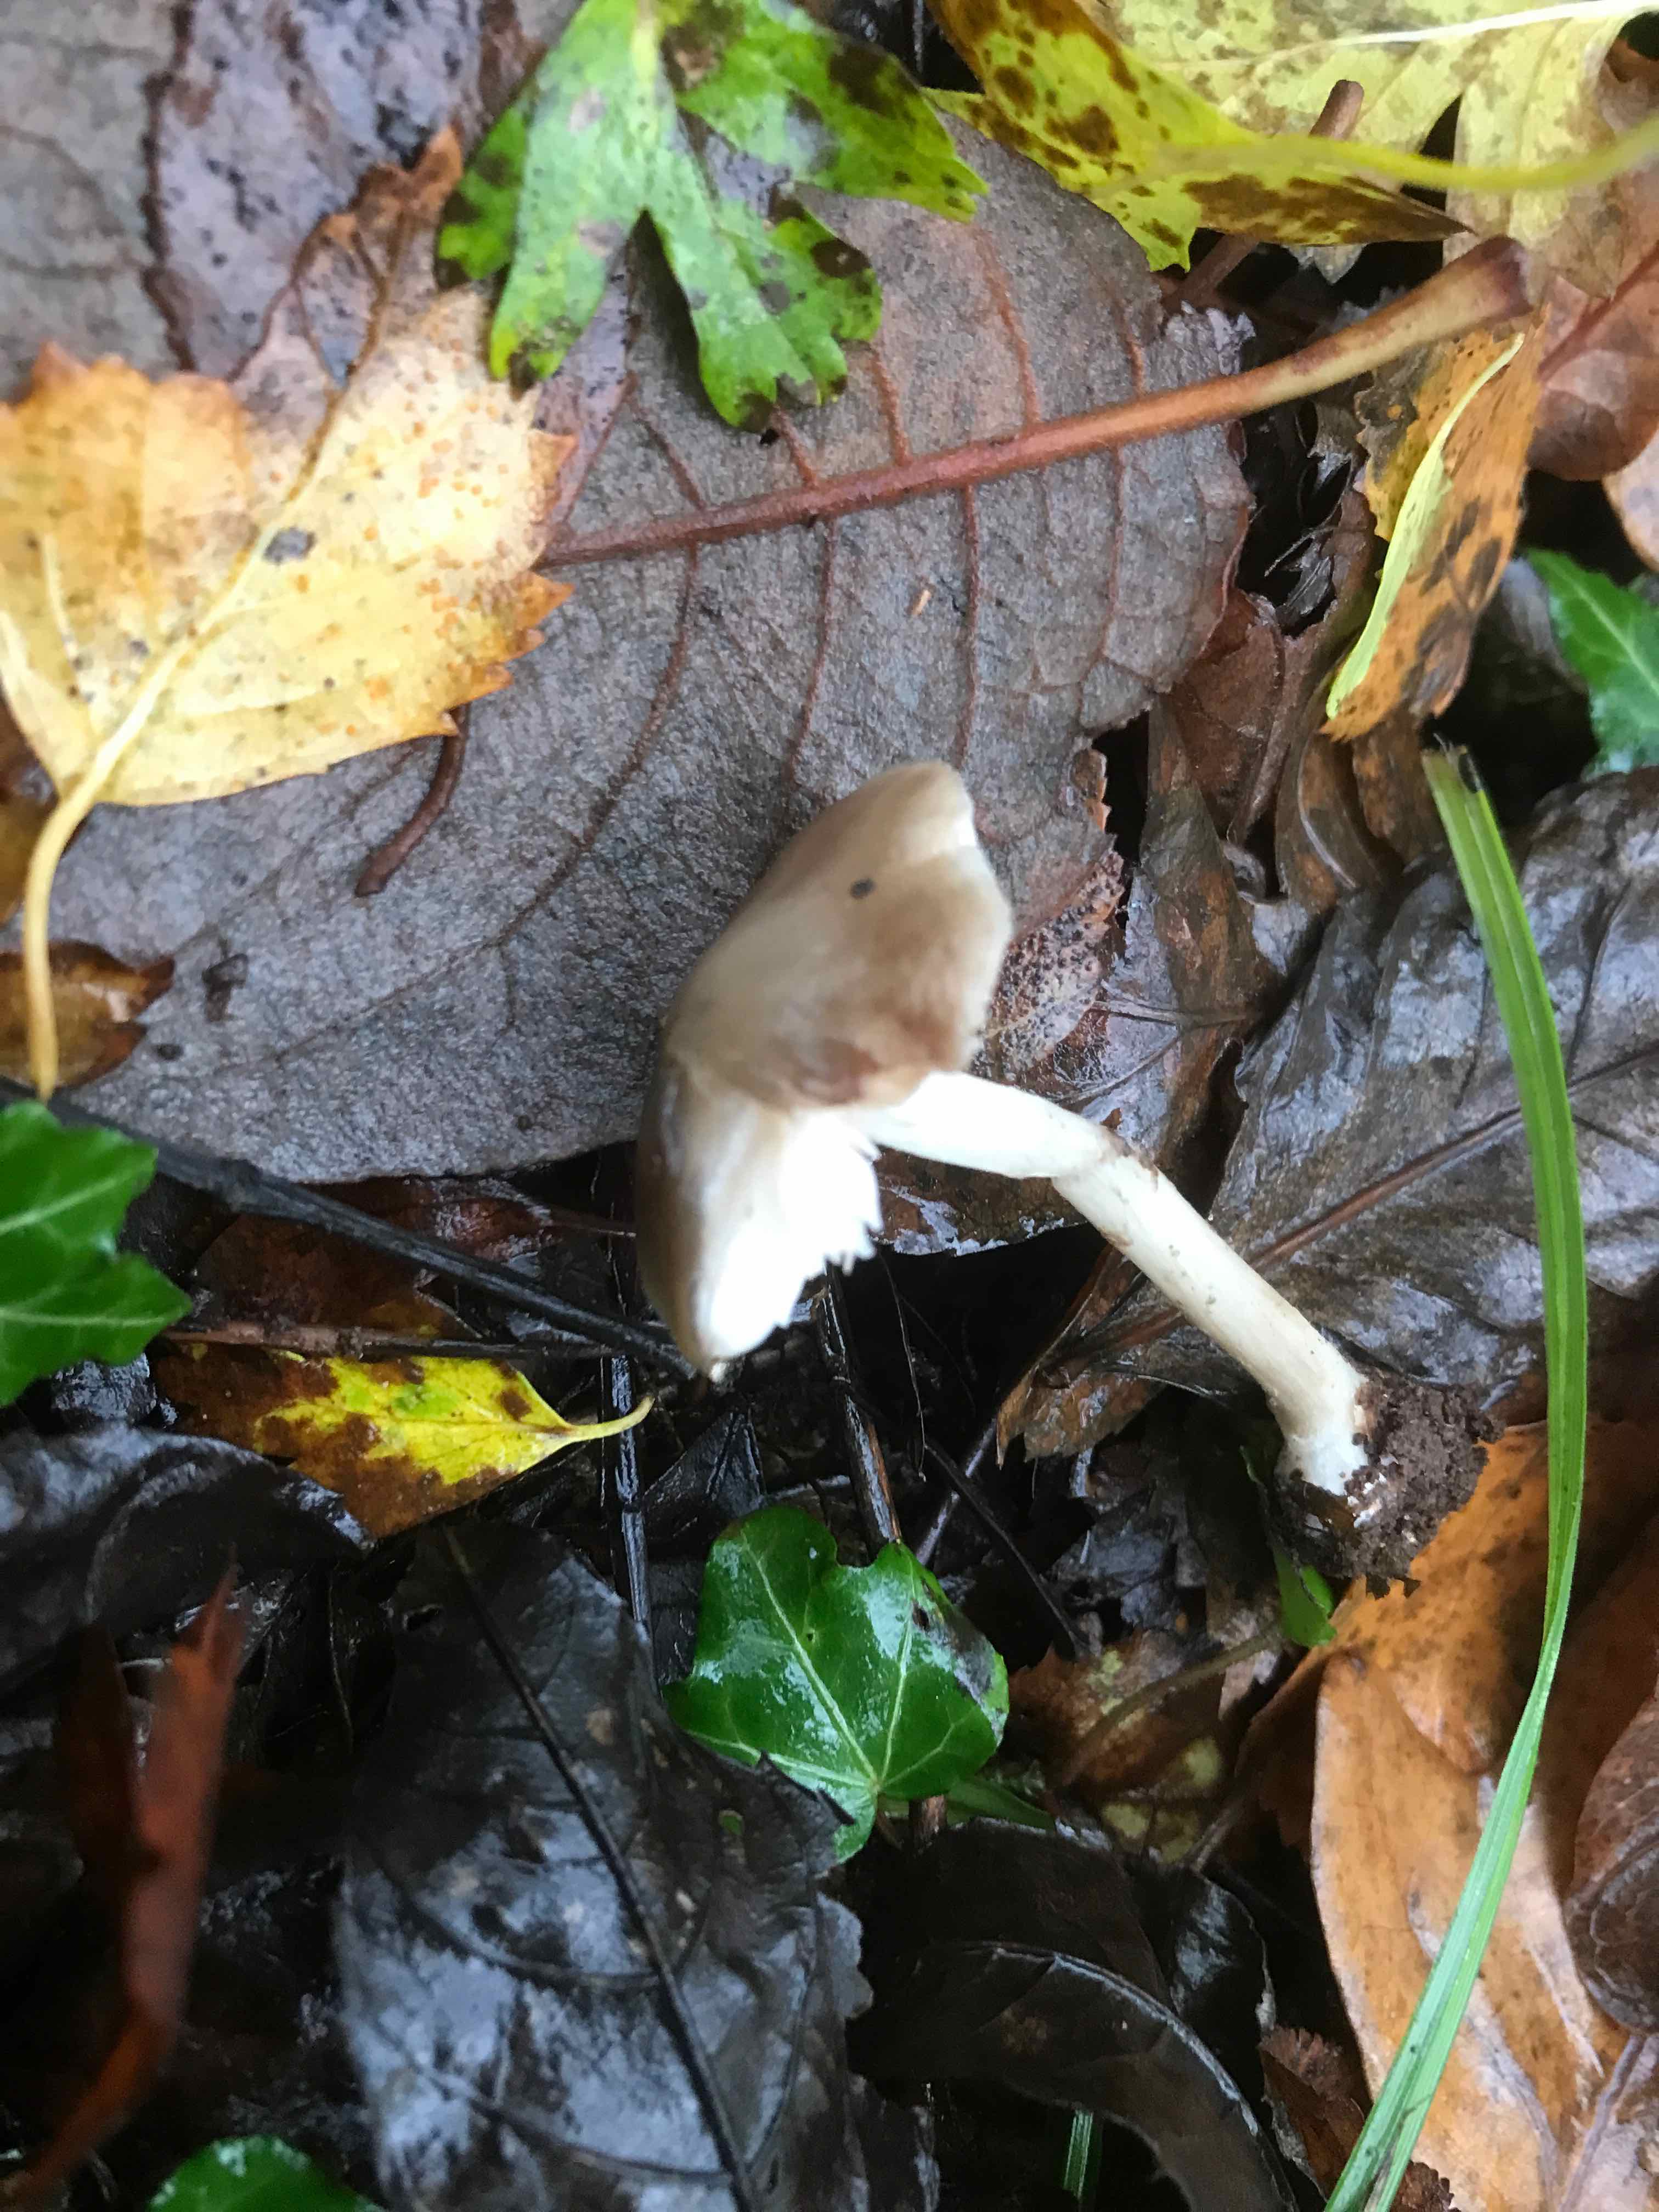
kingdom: Fungi
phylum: Basidiomycota
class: Agaricomycetes
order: Agaricales
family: Pluteaceae
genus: Pluteus
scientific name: Pluteus
